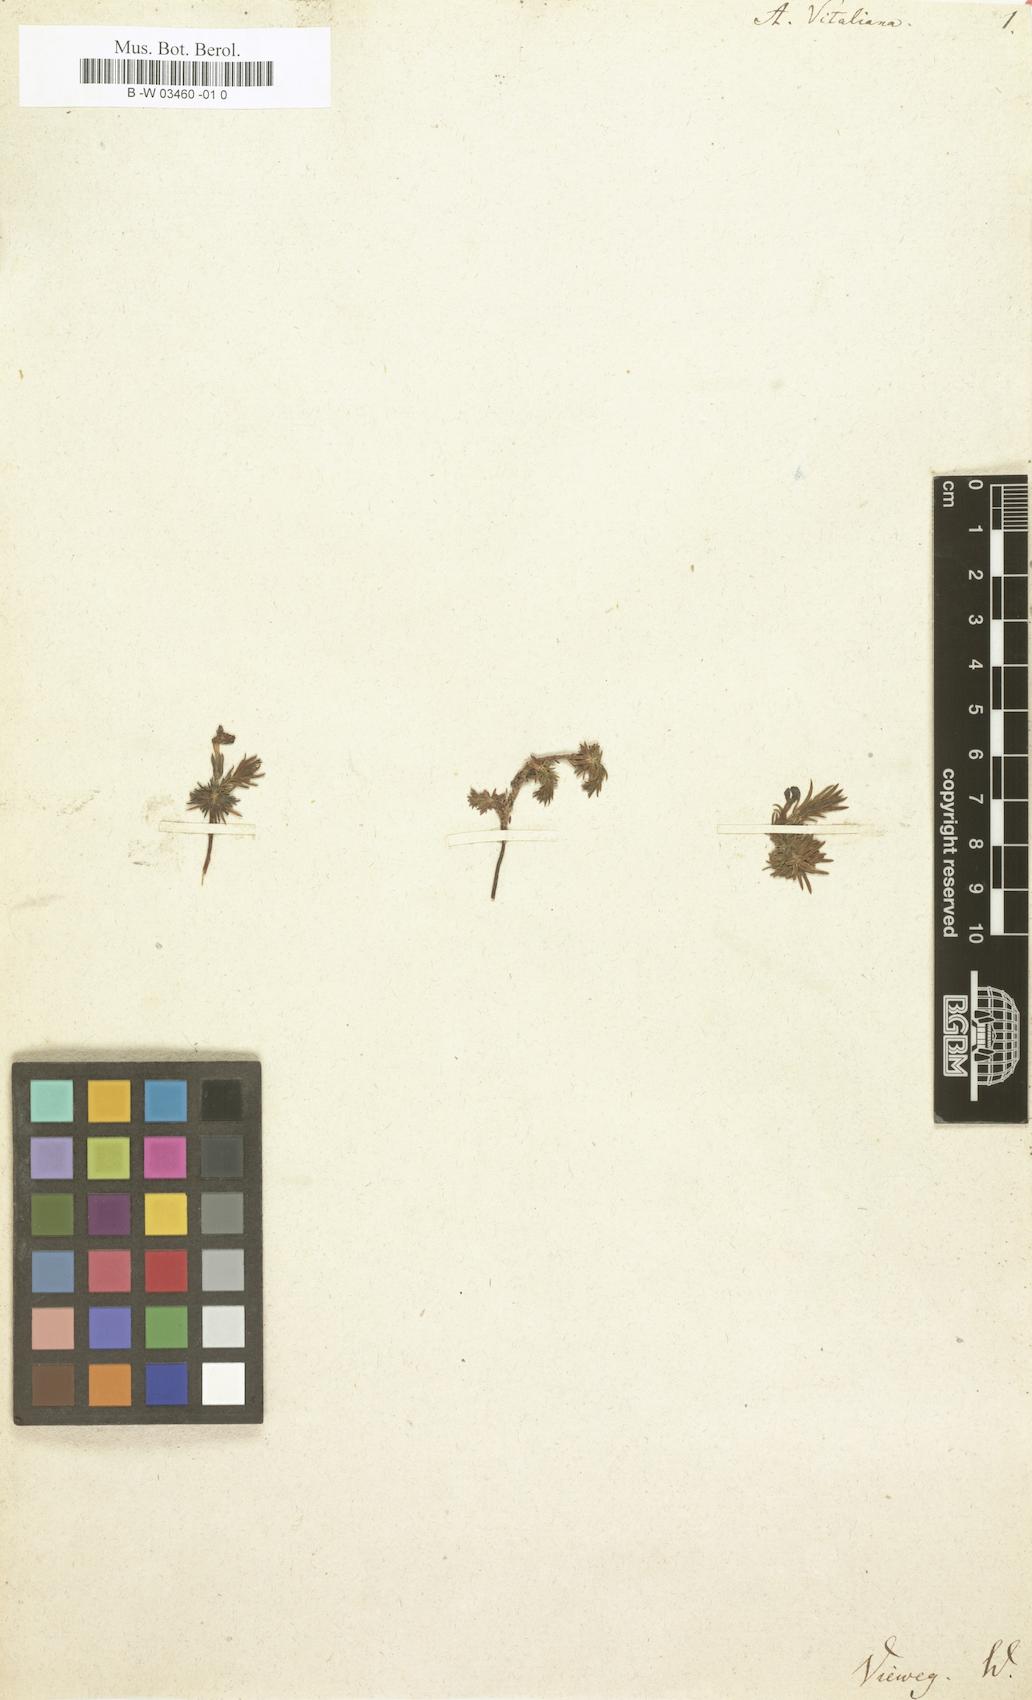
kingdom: Plantae
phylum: Tracheophyta
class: Magnoliopsida
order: Ericales
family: Primulaceae
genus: Androsace
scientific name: Androsace vitaliana
